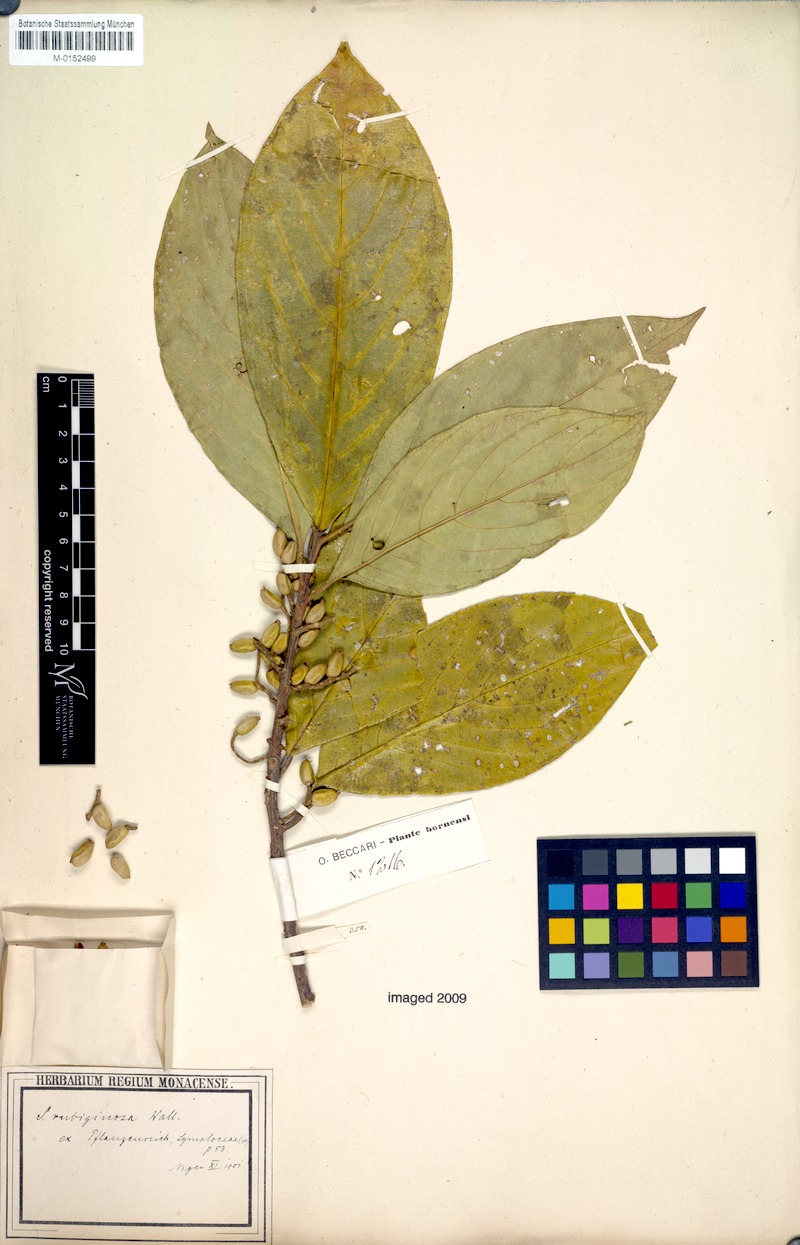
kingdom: Plantae
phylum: Tracheophyta
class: Magnoliopsida
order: Ericales
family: Symplocaceae
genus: Symplocos
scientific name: Symplocos rubiginosa
